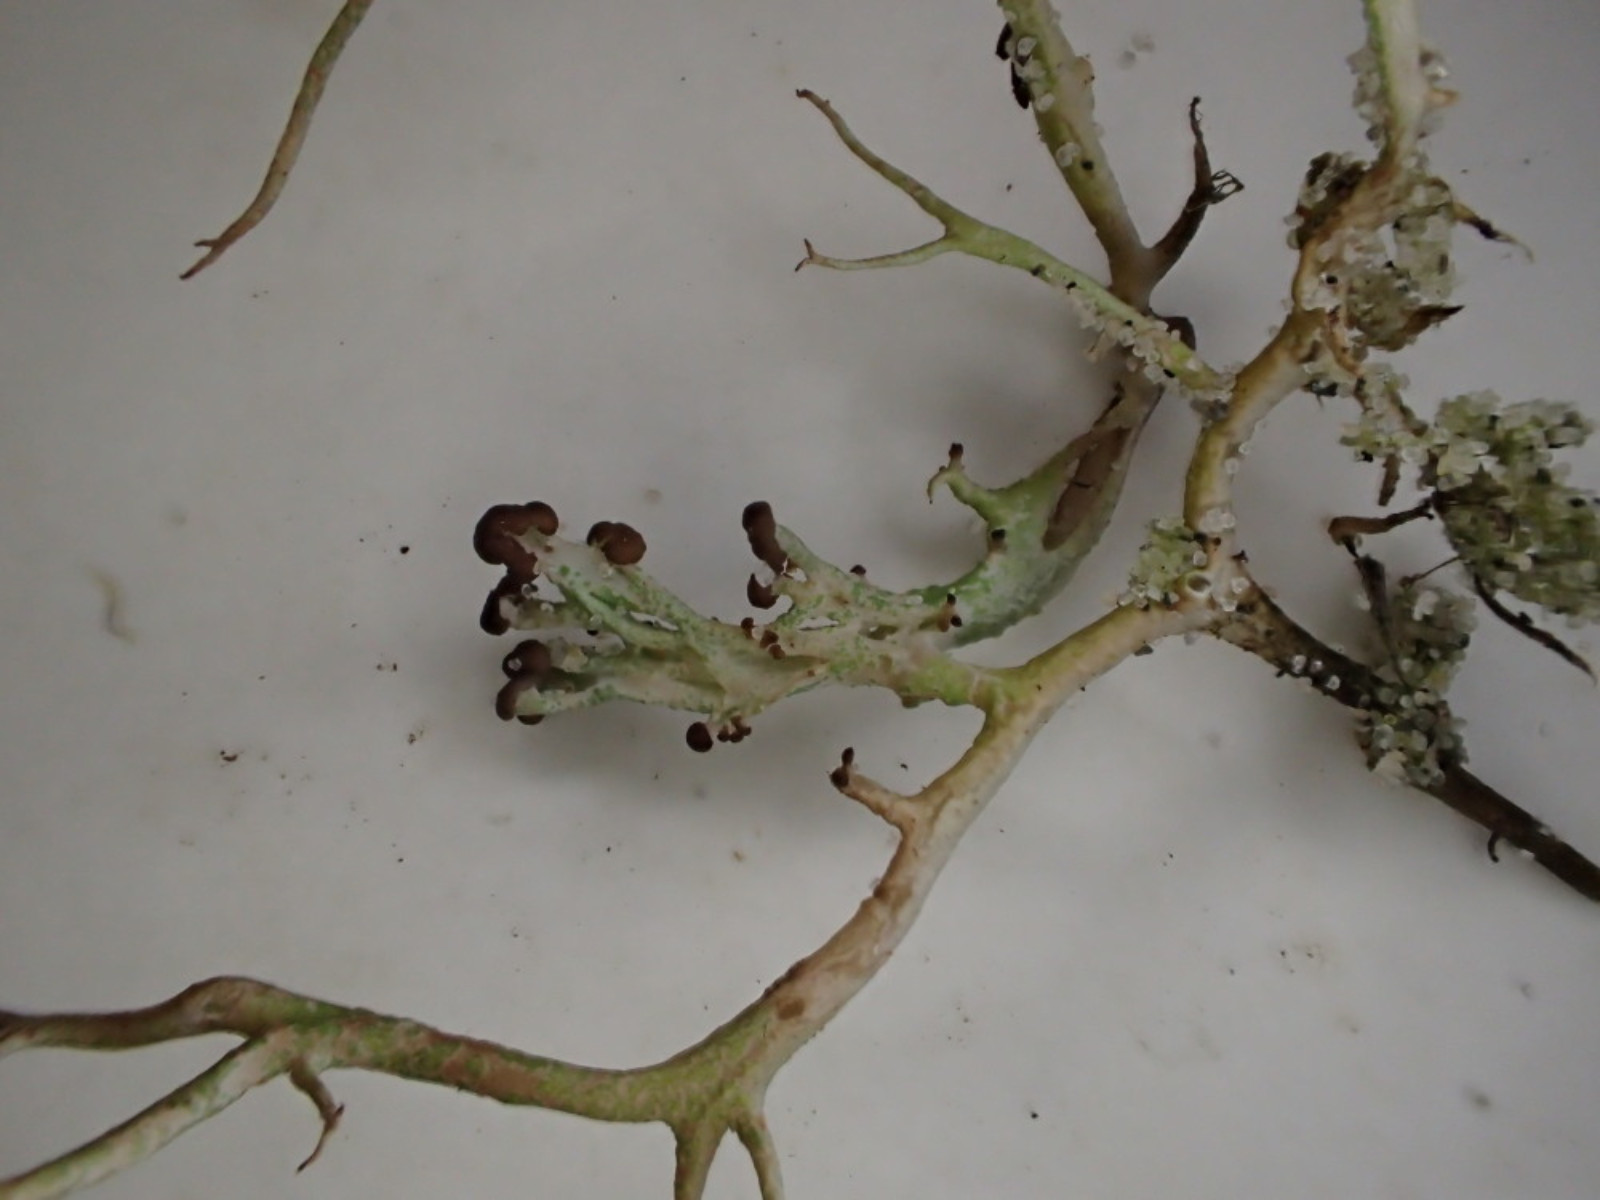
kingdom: Fungi
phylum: Ascomycota
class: Lecanoromycetes
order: Lecanorales
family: Cladoniaceae
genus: Cladonia
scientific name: Cladonia furcata
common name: kløftet bægerlav
